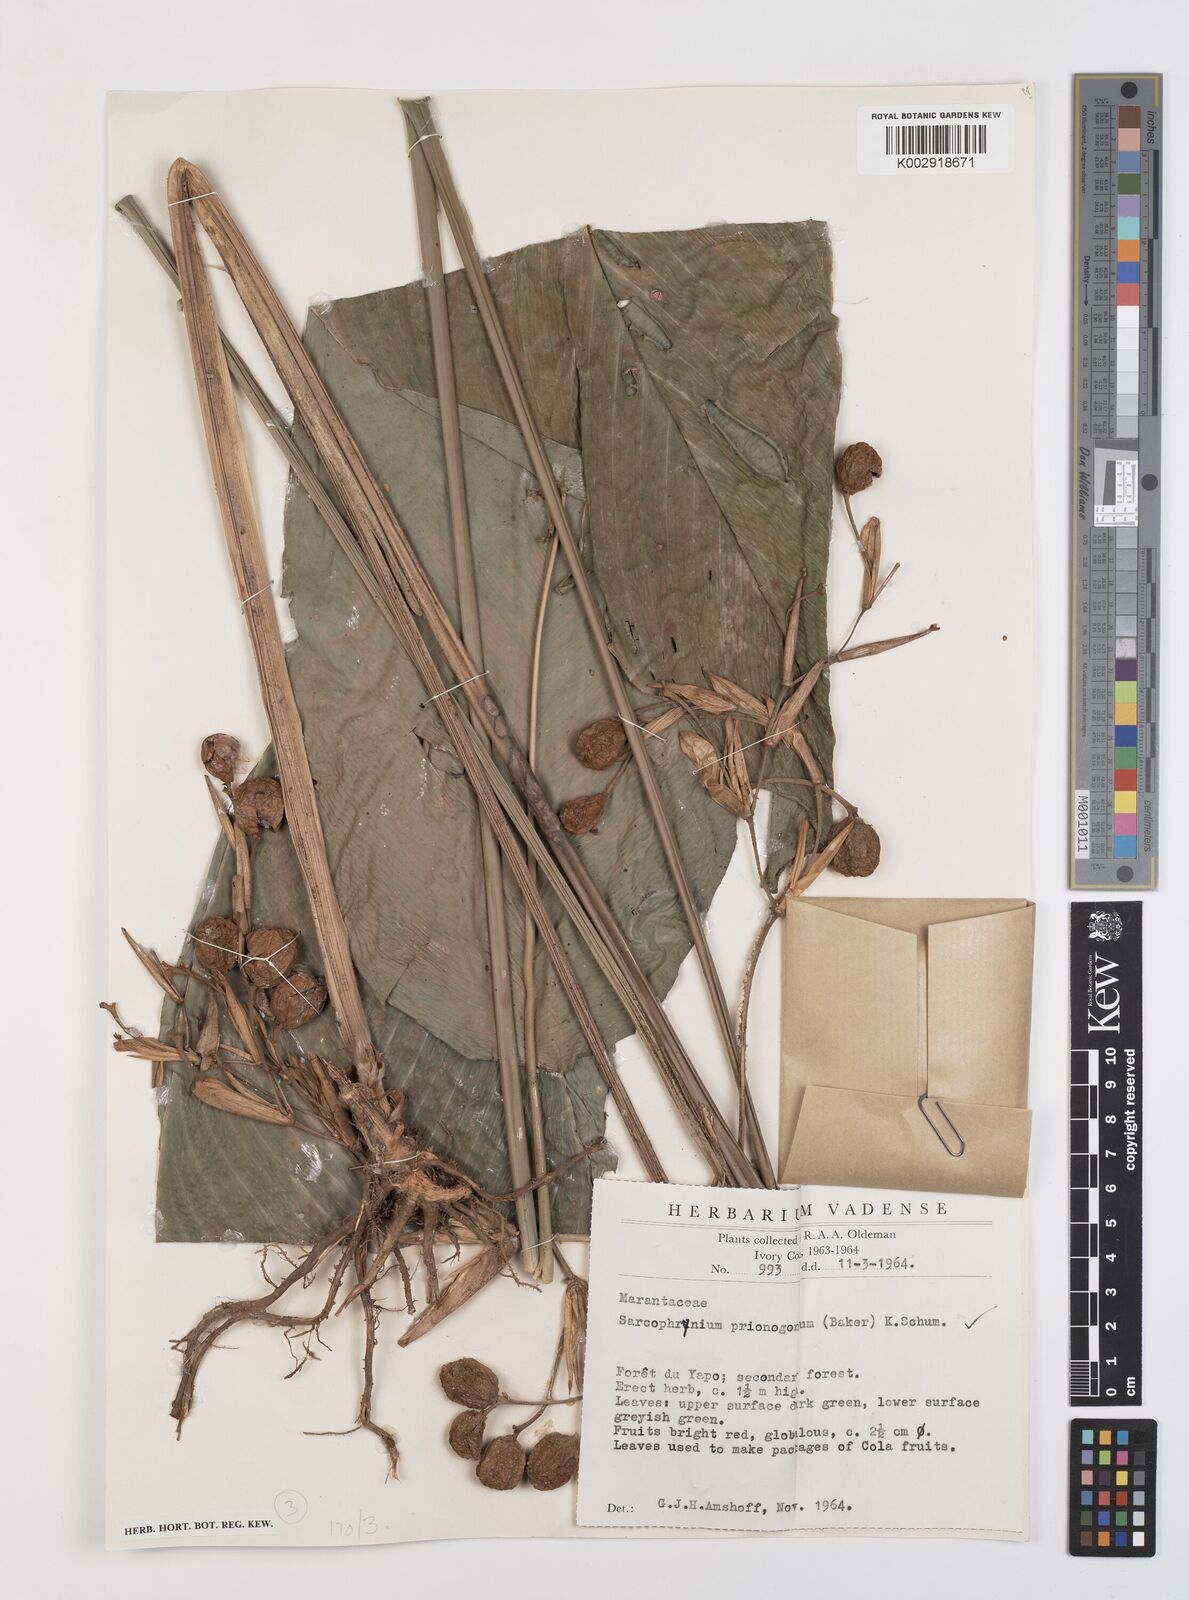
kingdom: Plantae
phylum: Tracheophyta
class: Liliopsida
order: Zingiberales
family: Marantaceae
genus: Sarcophrynium
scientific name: Sarcophrynium prionogonium
